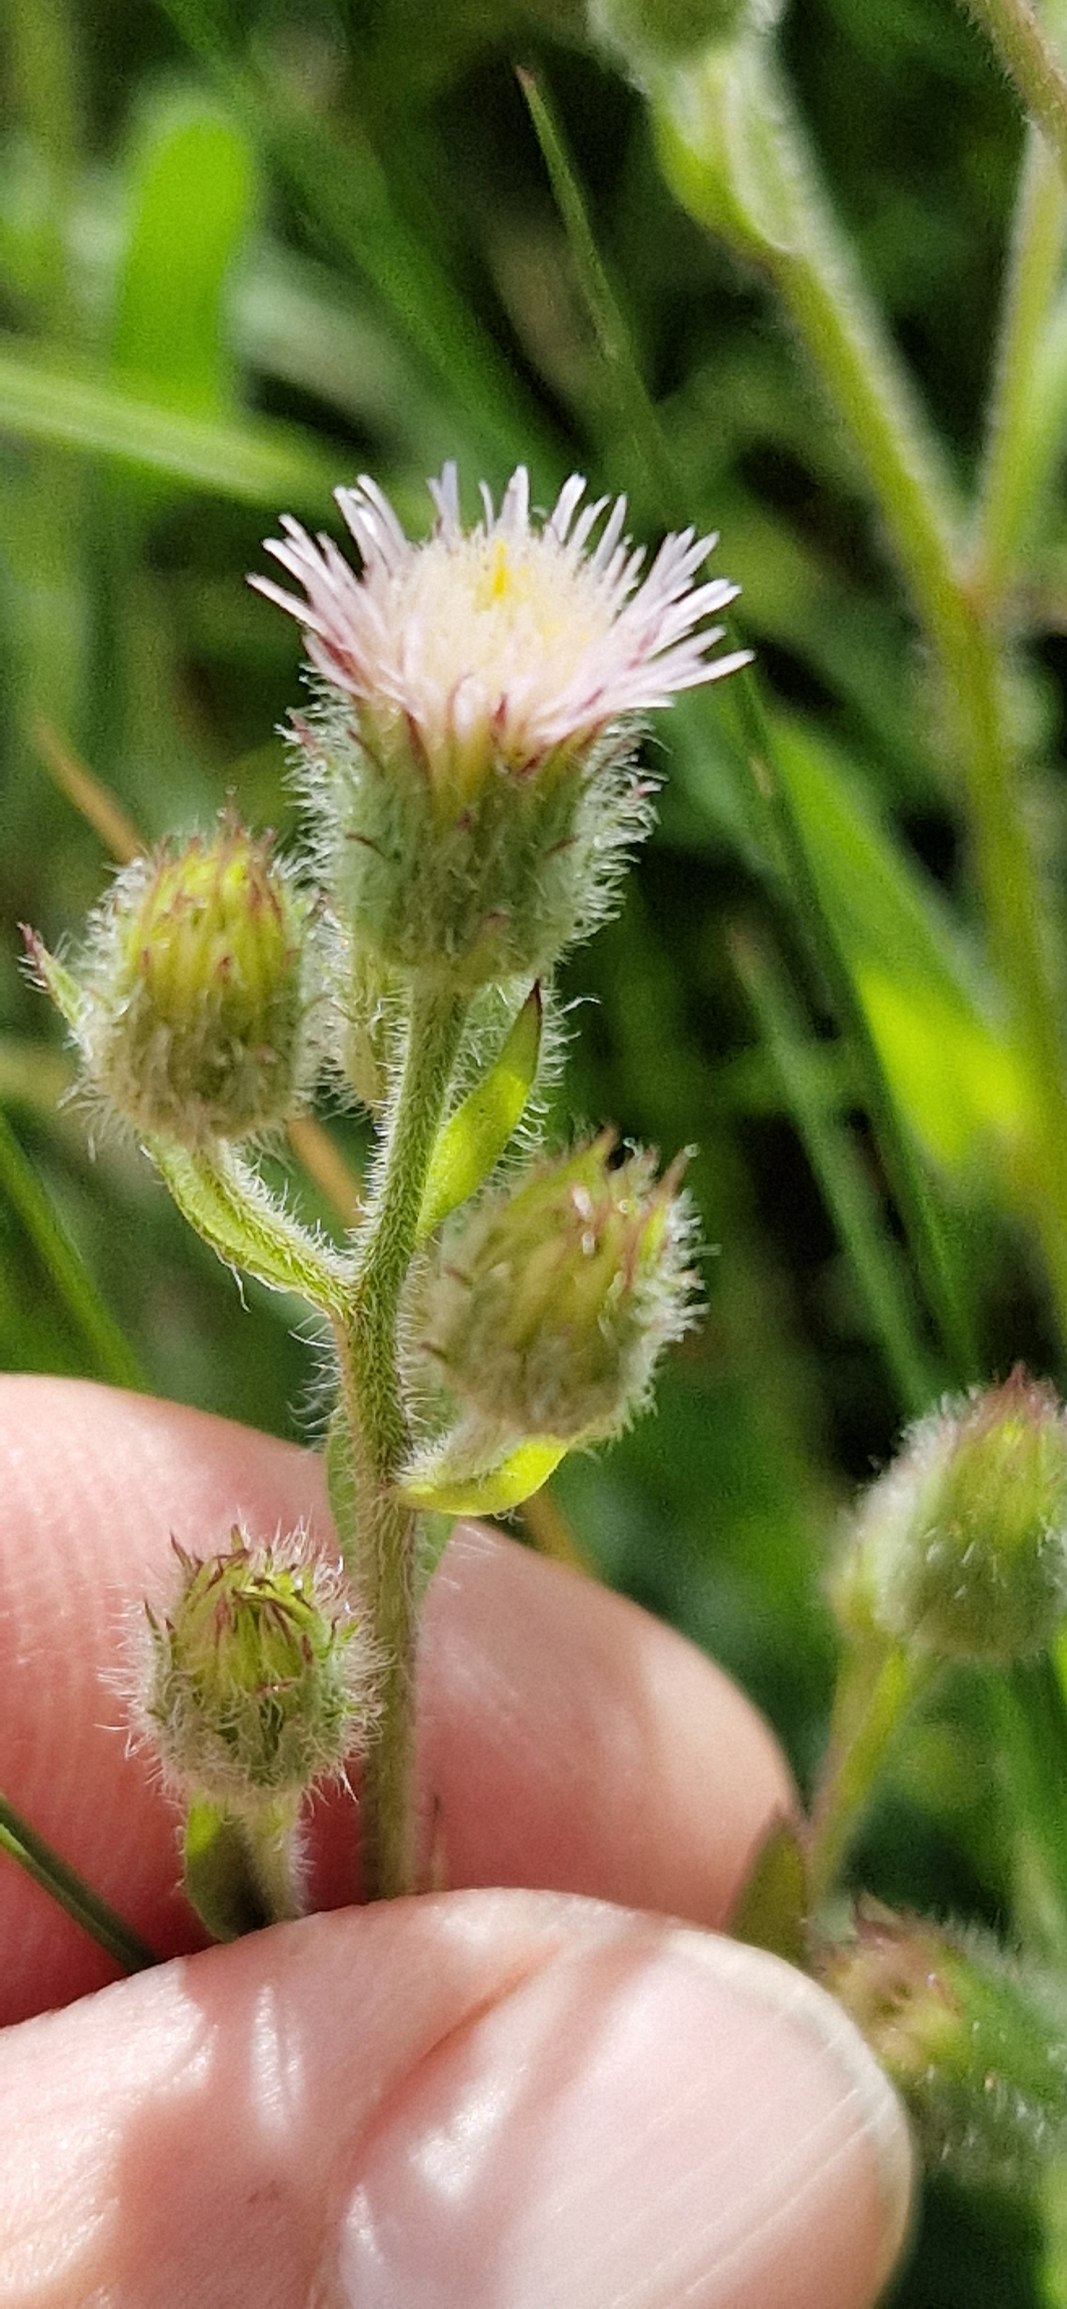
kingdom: Plantae
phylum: Tracheophyta
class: Magnoliopsida
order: Asterales
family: Asteraceae
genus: Erigeron
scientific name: Erigeron acris
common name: Bitter bakkestjerne
